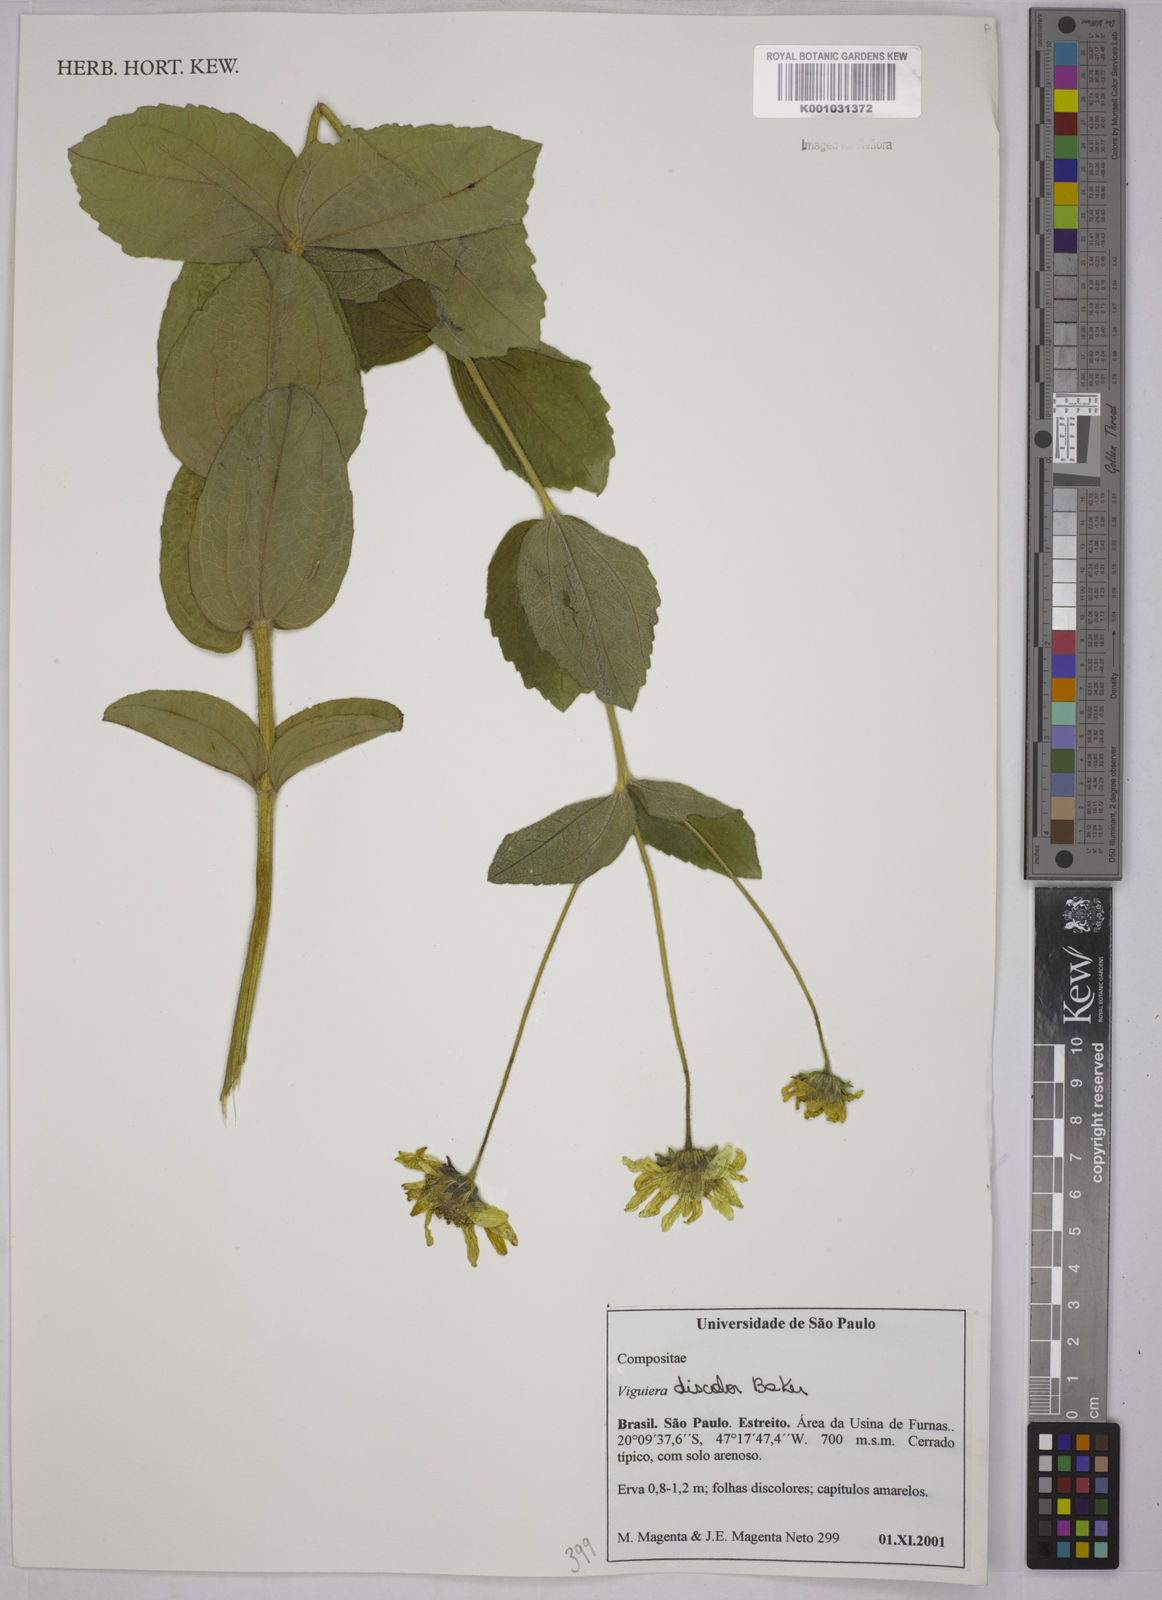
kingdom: Plantae
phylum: Tracheophyta
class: Magnoliopsida
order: Asterales
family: Asteraceae
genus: Aldama
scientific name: Aldama discolor
